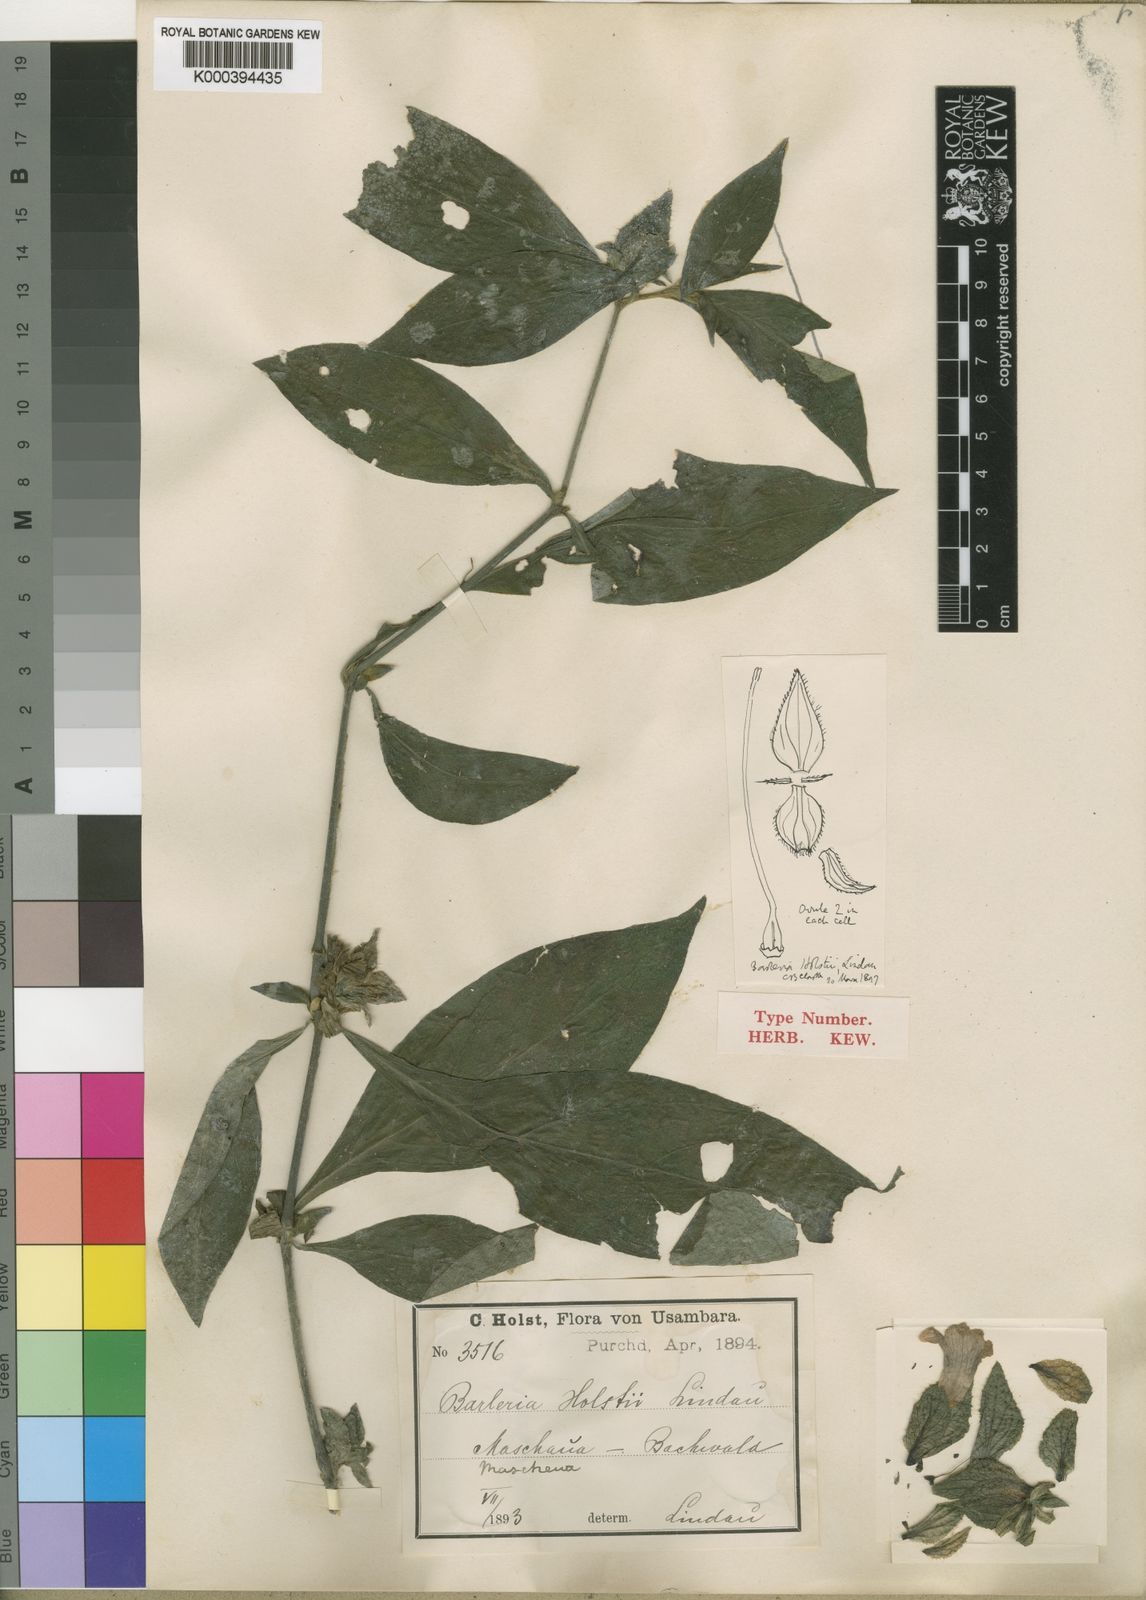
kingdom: Plantae
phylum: Tracheophyta
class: Magnoliopsida
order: Lamiales
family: Acanthaceae
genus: Barleria
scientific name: Barleria holstii
